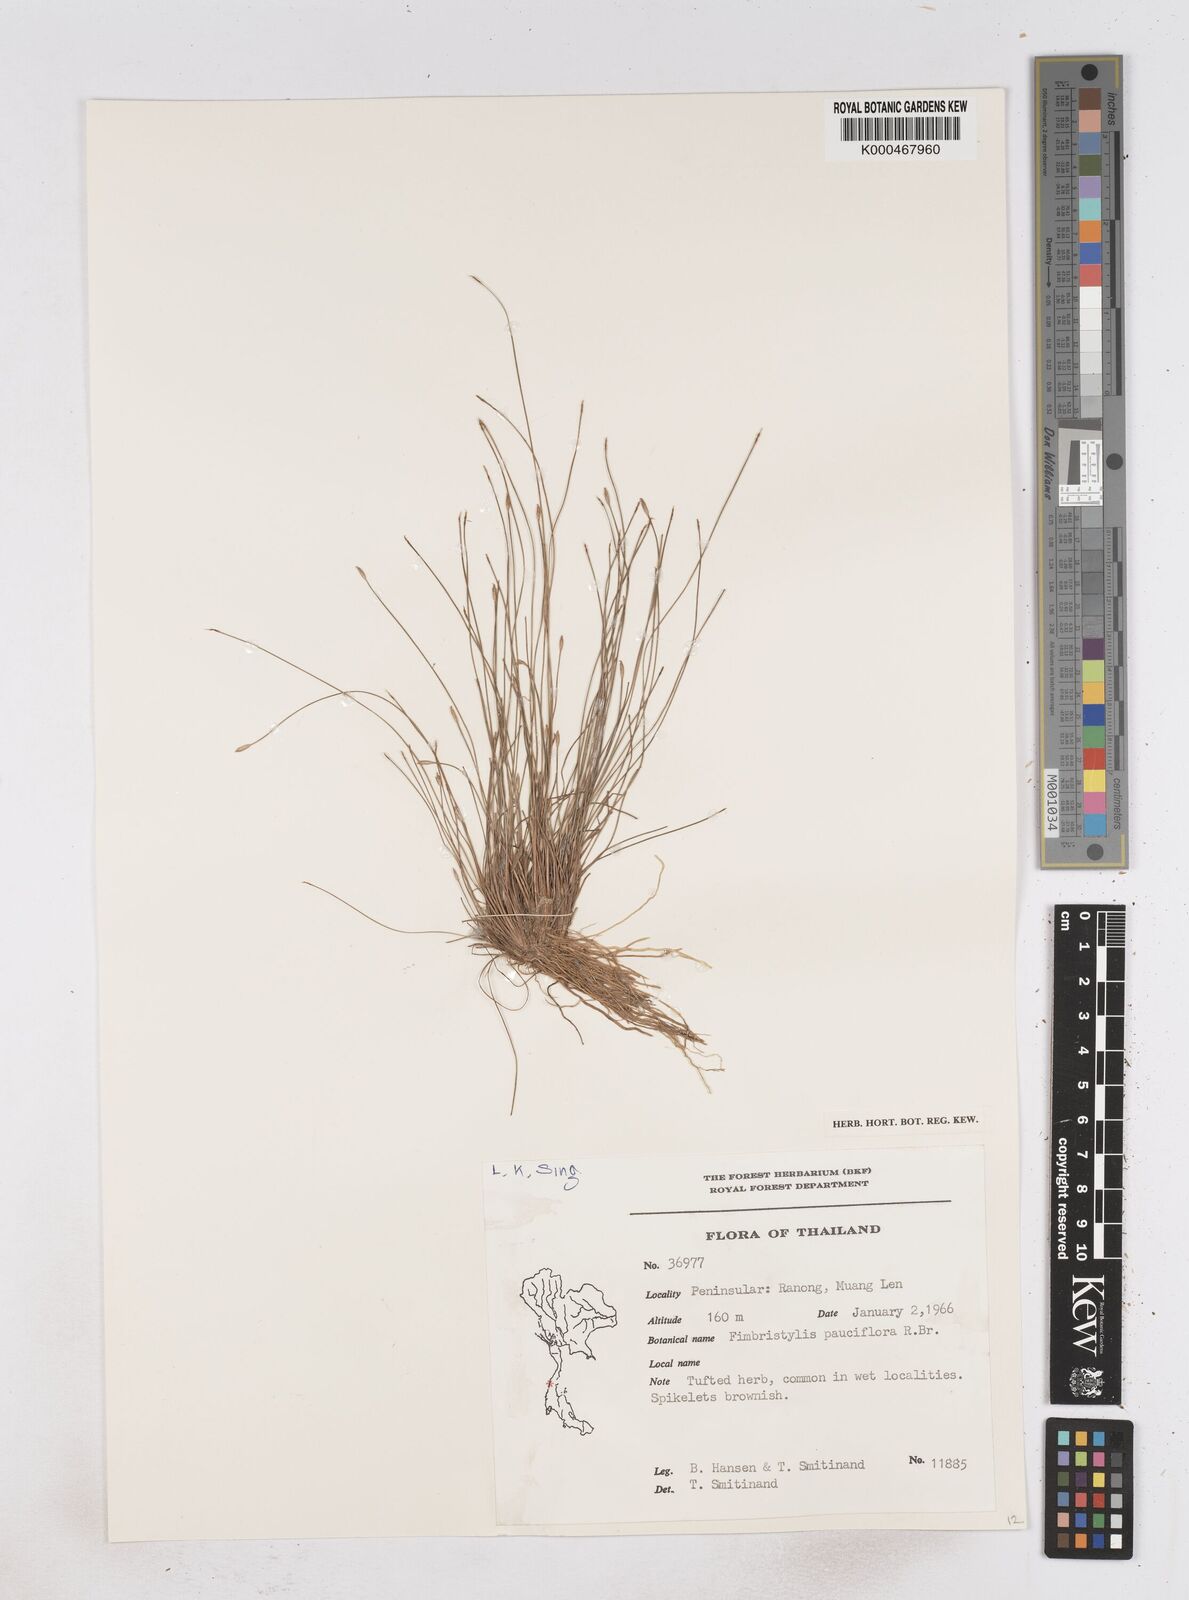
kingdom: Plantae
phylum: Tracheophyta
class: Liliopsida
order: Poales
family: Cyperaceae
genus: Fimbristylis
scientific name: Fimbristylis pauciflora
